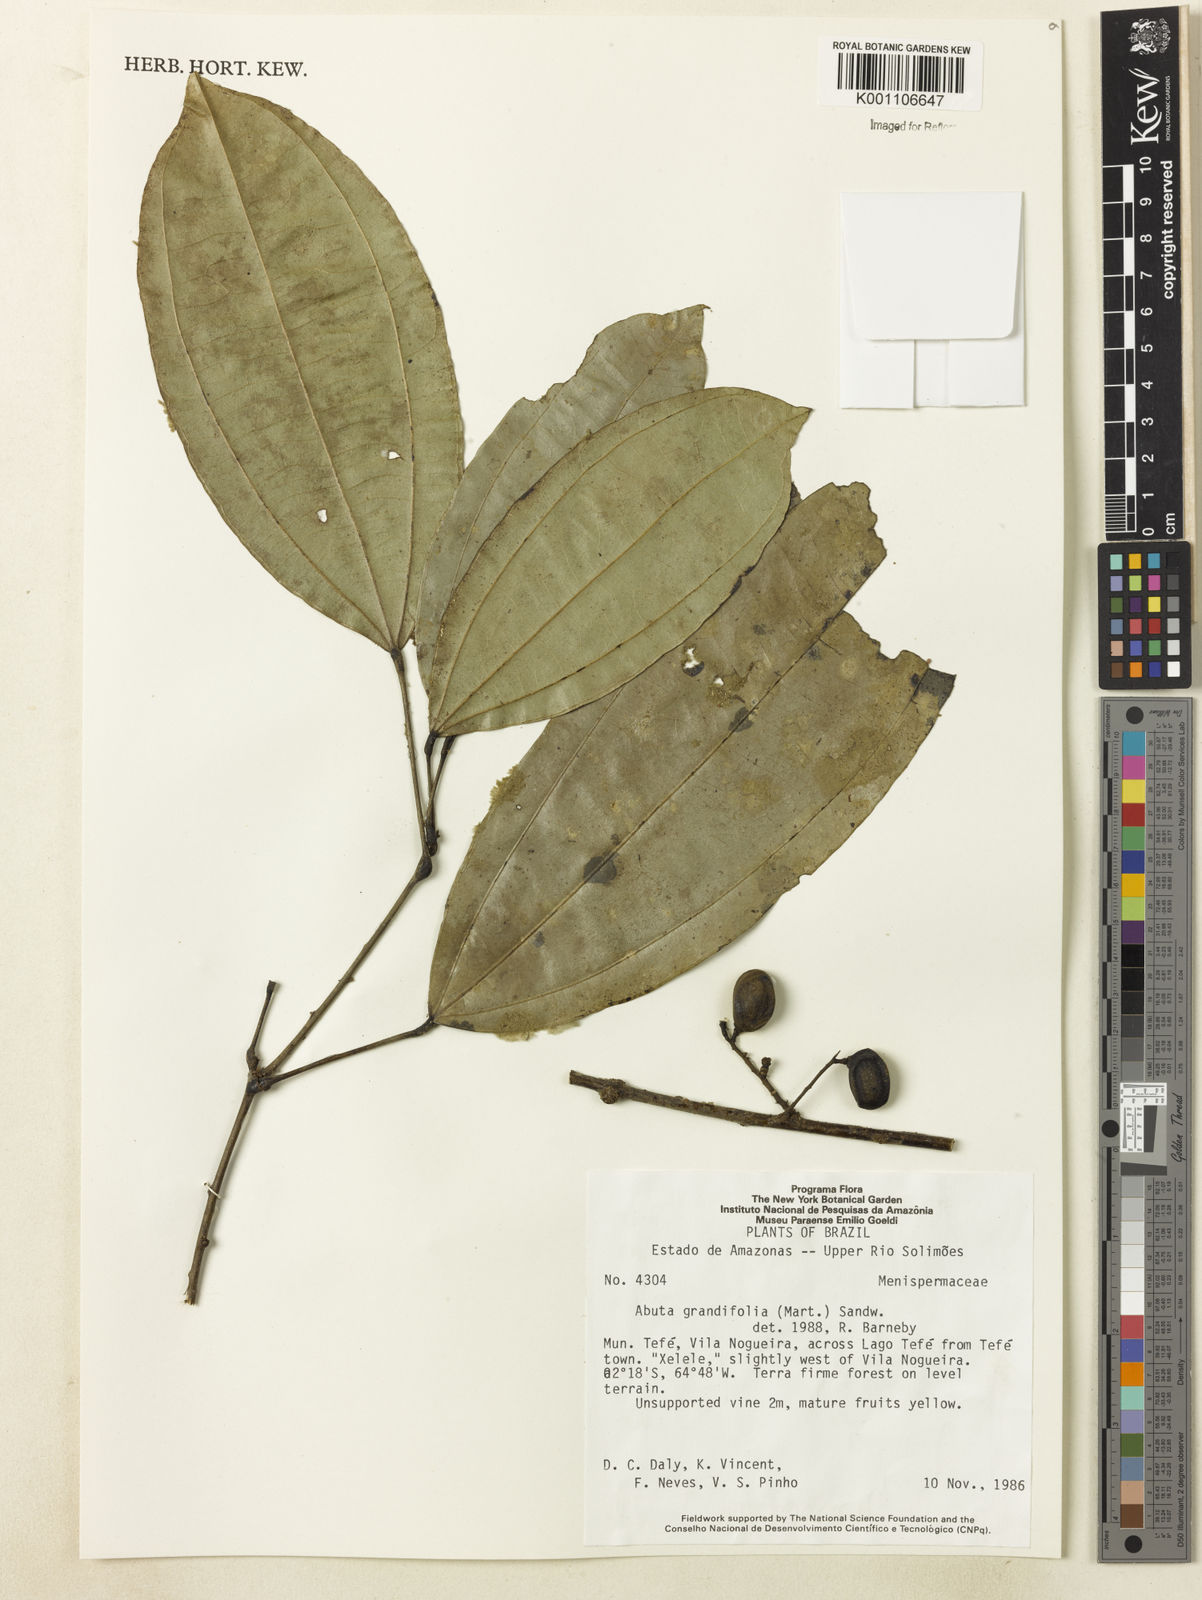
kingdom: Plantae
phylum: Tracheophyta
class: Magnoliopsida
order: Ranunculales
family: Menispermaceae
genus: Abuta
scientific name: Abuta grandifolia
